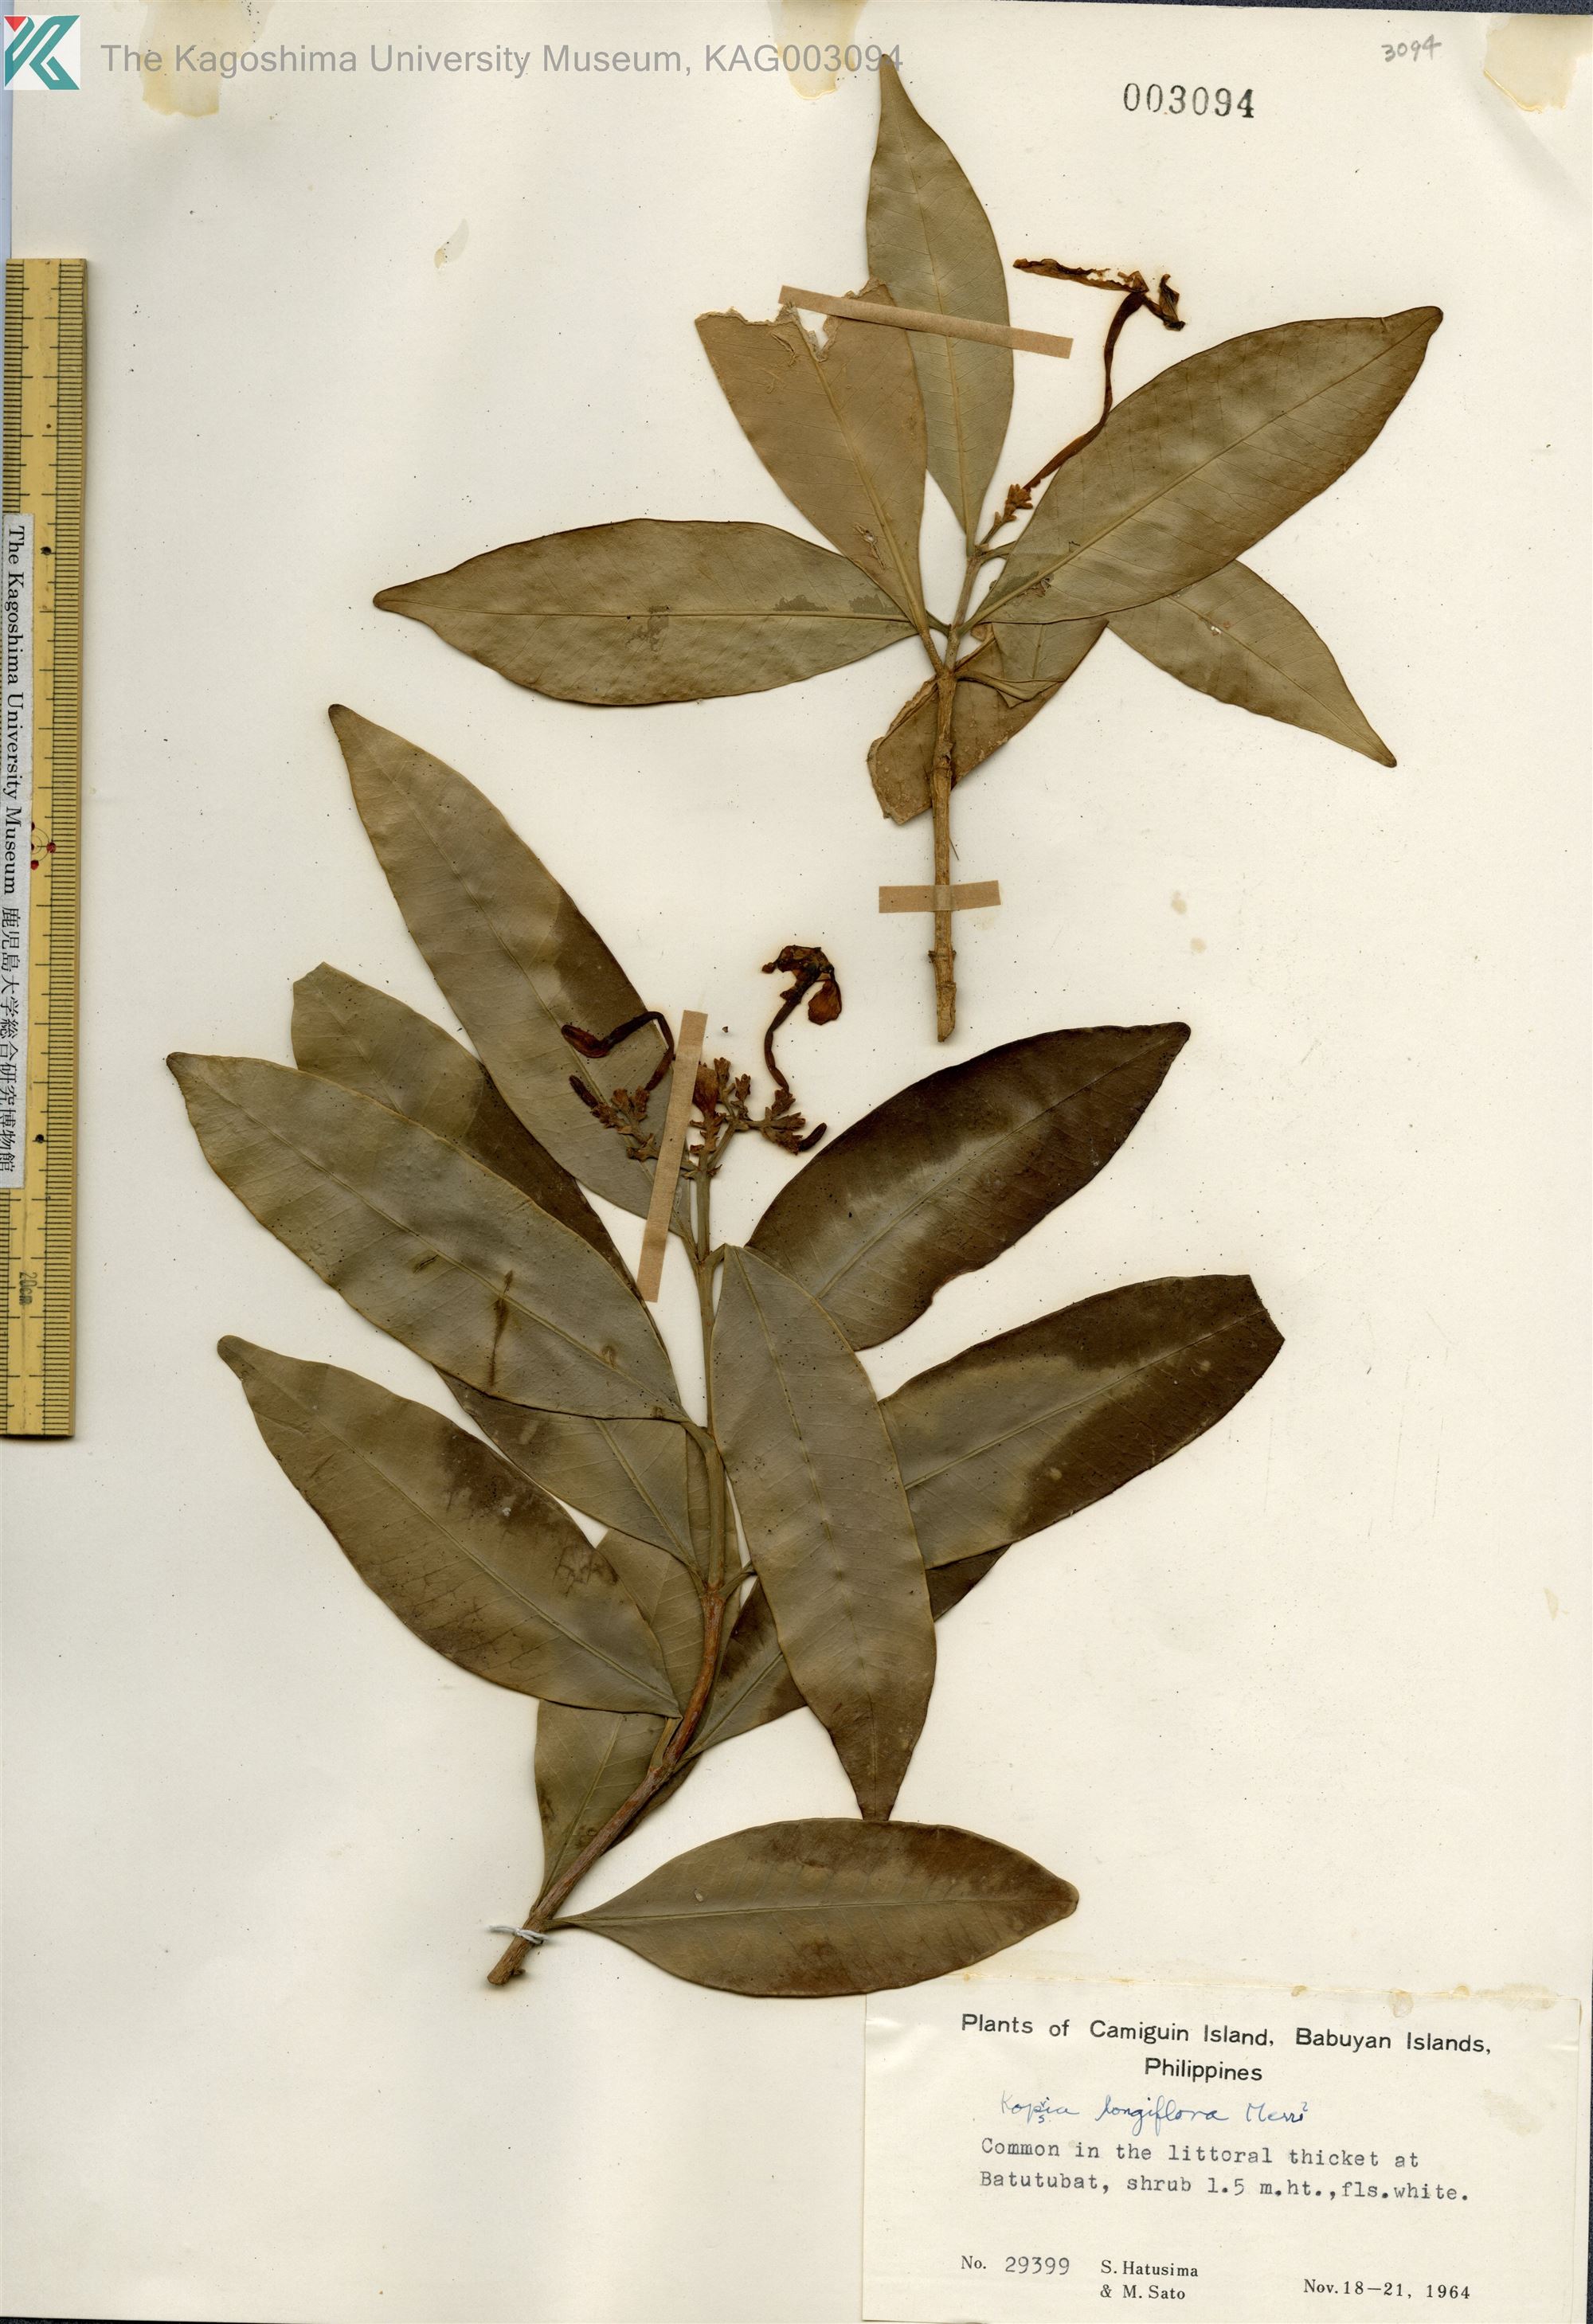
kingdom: Plantae
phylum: Tracheophyta
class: Magnoliopsida
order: Gentianales
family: Apocynaceae
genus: Kopsia
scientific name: Kopsia arborea
